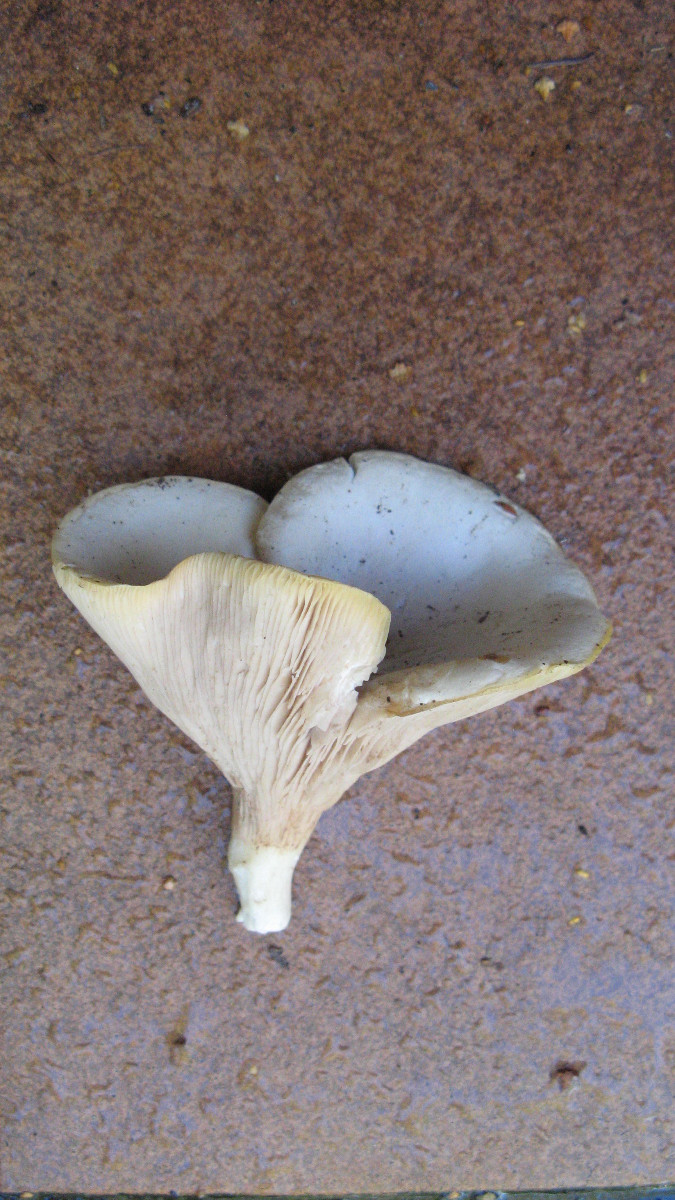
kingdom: Fungi
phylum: Basidiomycota
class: Agaricomycetes
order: Agaricales
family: Entolomataceae
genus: Clitopilus
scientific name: Clitopilus prunulus
